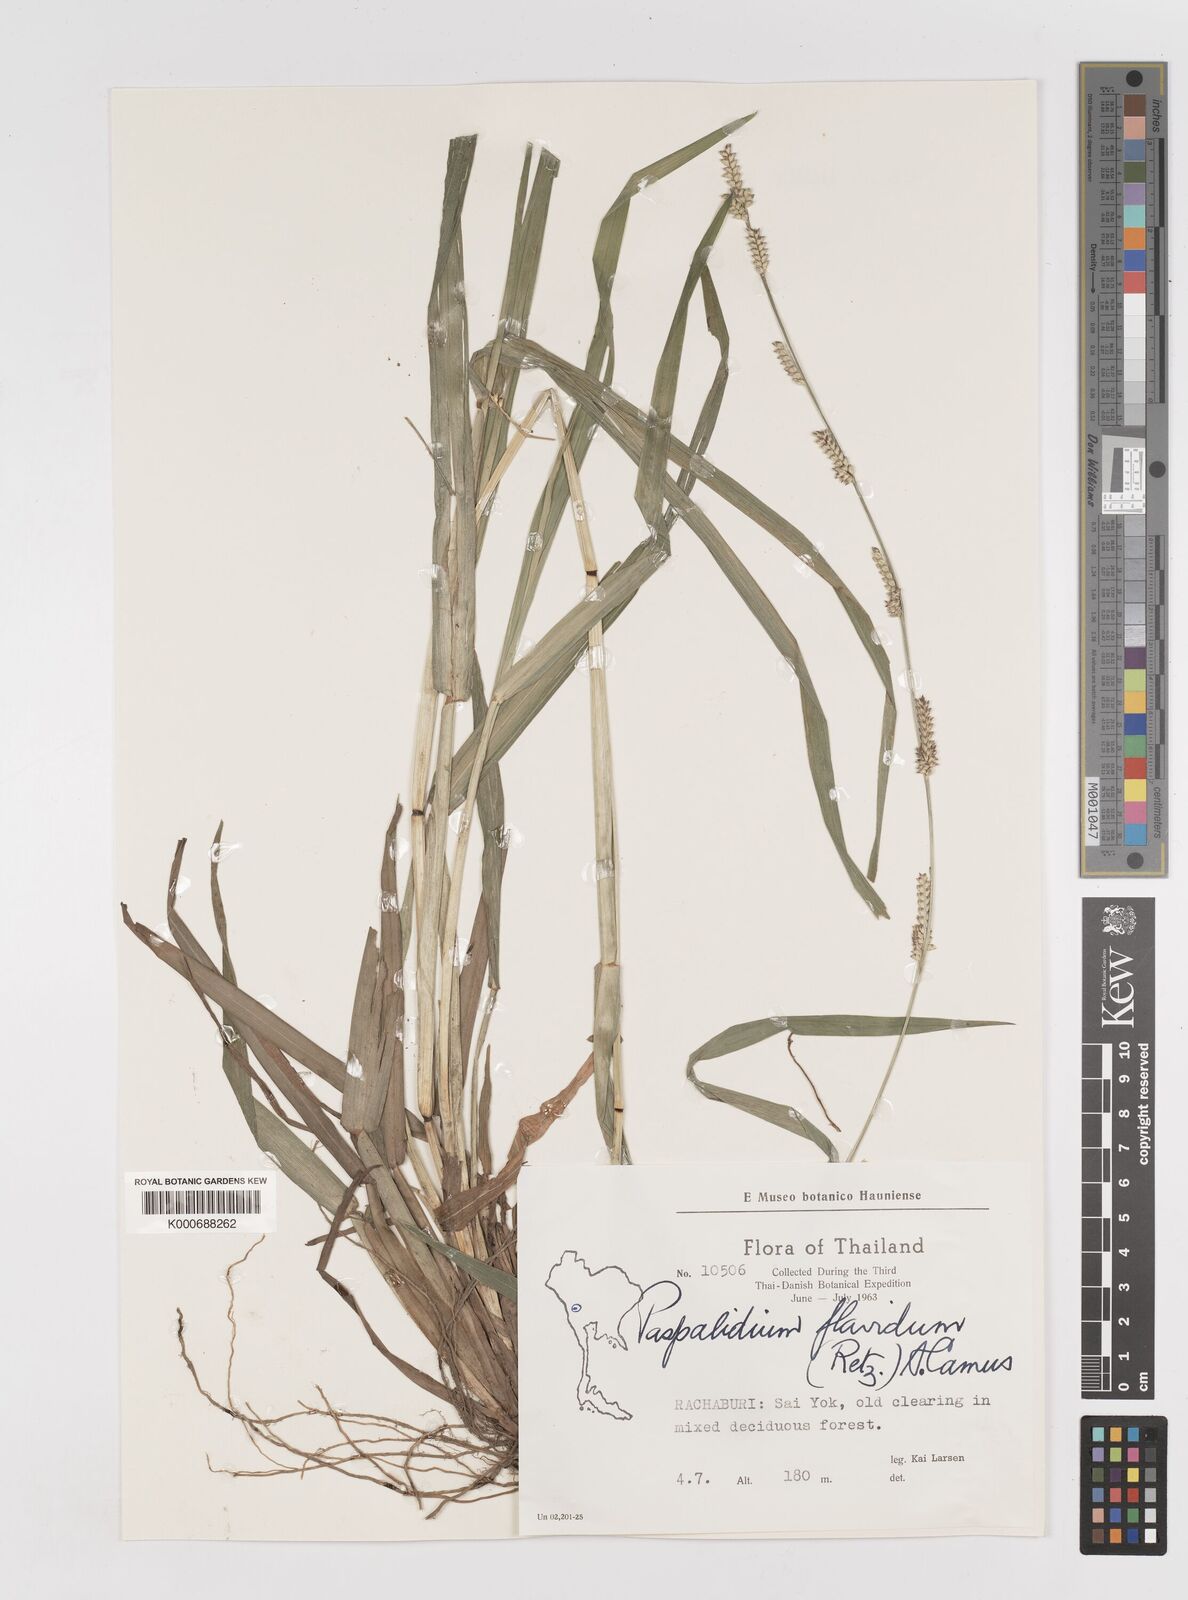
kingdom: Plantae
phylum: Tracheophyta
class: Liliopsida
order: Poales
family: Poaceae
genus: Setaria
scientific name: Setaria flavida
